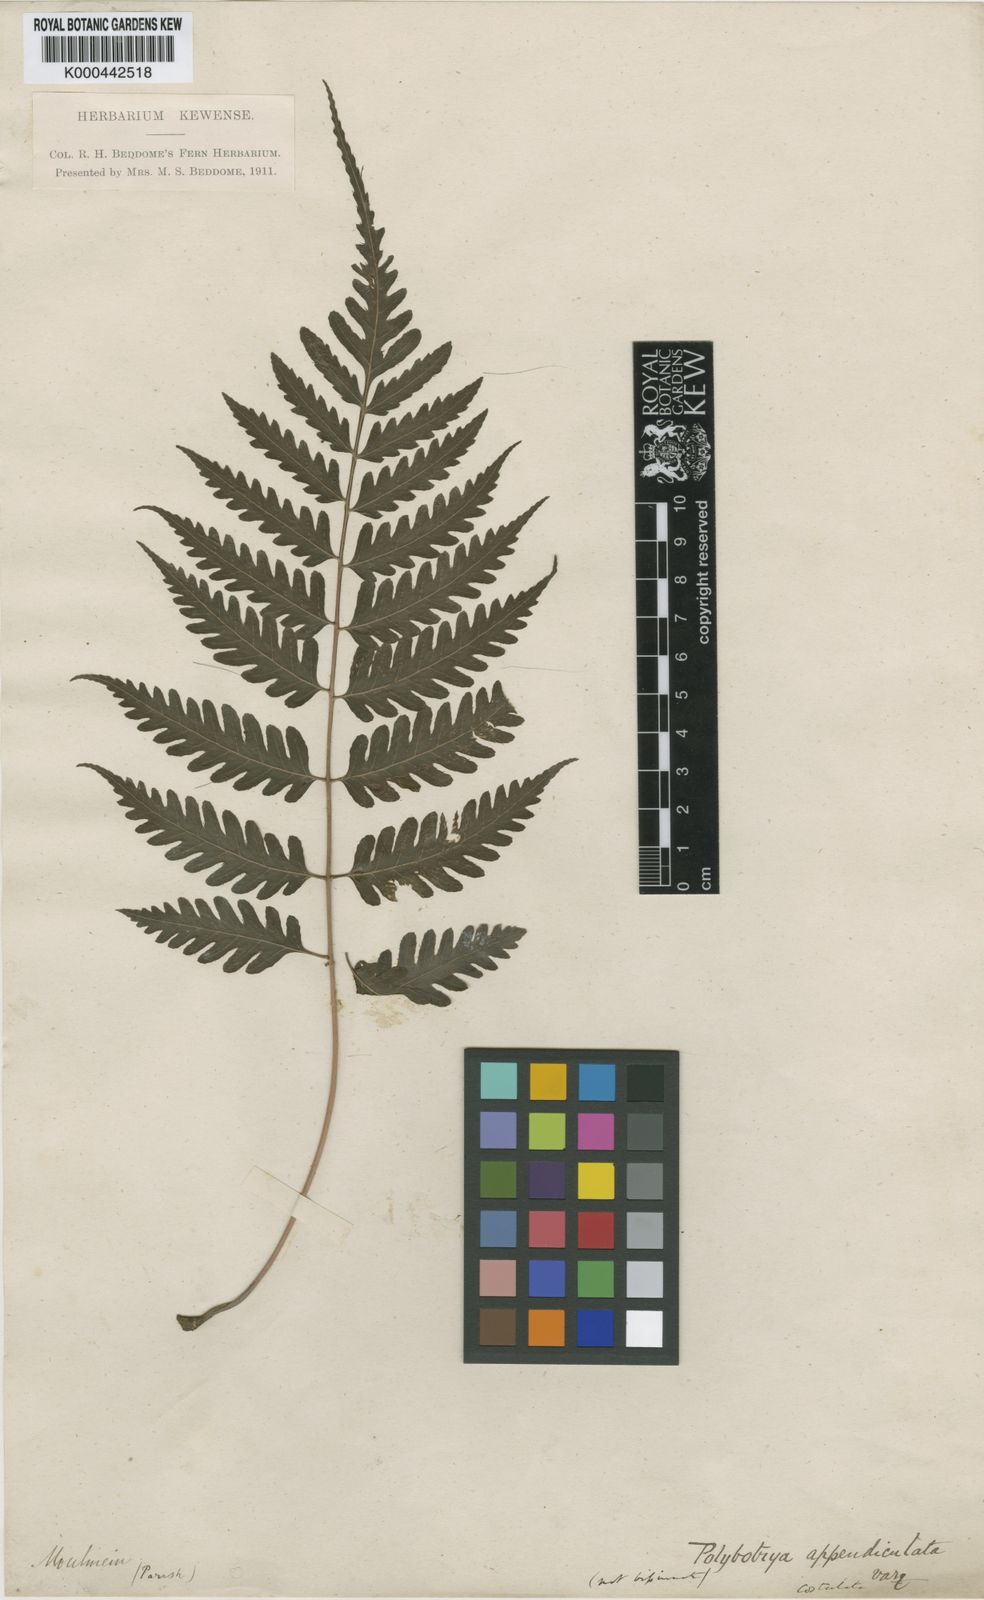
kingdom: Plantae
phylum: Tracheophyta
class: Polypodiopsida
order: Polypodiales
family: Dryopteridaceae
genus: Bolbitis
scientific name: Bolbitis sinensis
